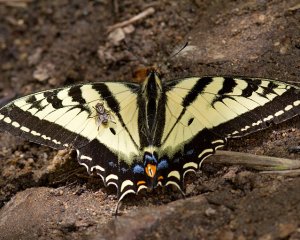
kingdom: Animalia
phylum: Arthropoda
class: Insecta
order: Lepidoptera
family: Papilionidae
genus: Pterourus
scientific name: Pterourus rutulus
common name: Western Tiger Swallowtail
